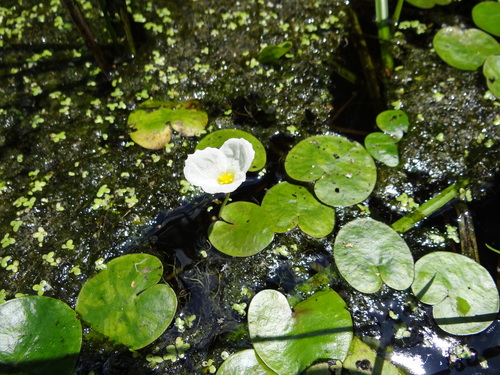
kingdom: Plantae
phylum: Tracheophyta
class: Liliopsida
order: Alismatales
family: Hydrocharitaceae
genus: Hydrocharis
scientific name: Hydrocharis morsus-ranae
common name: European frog-bit
